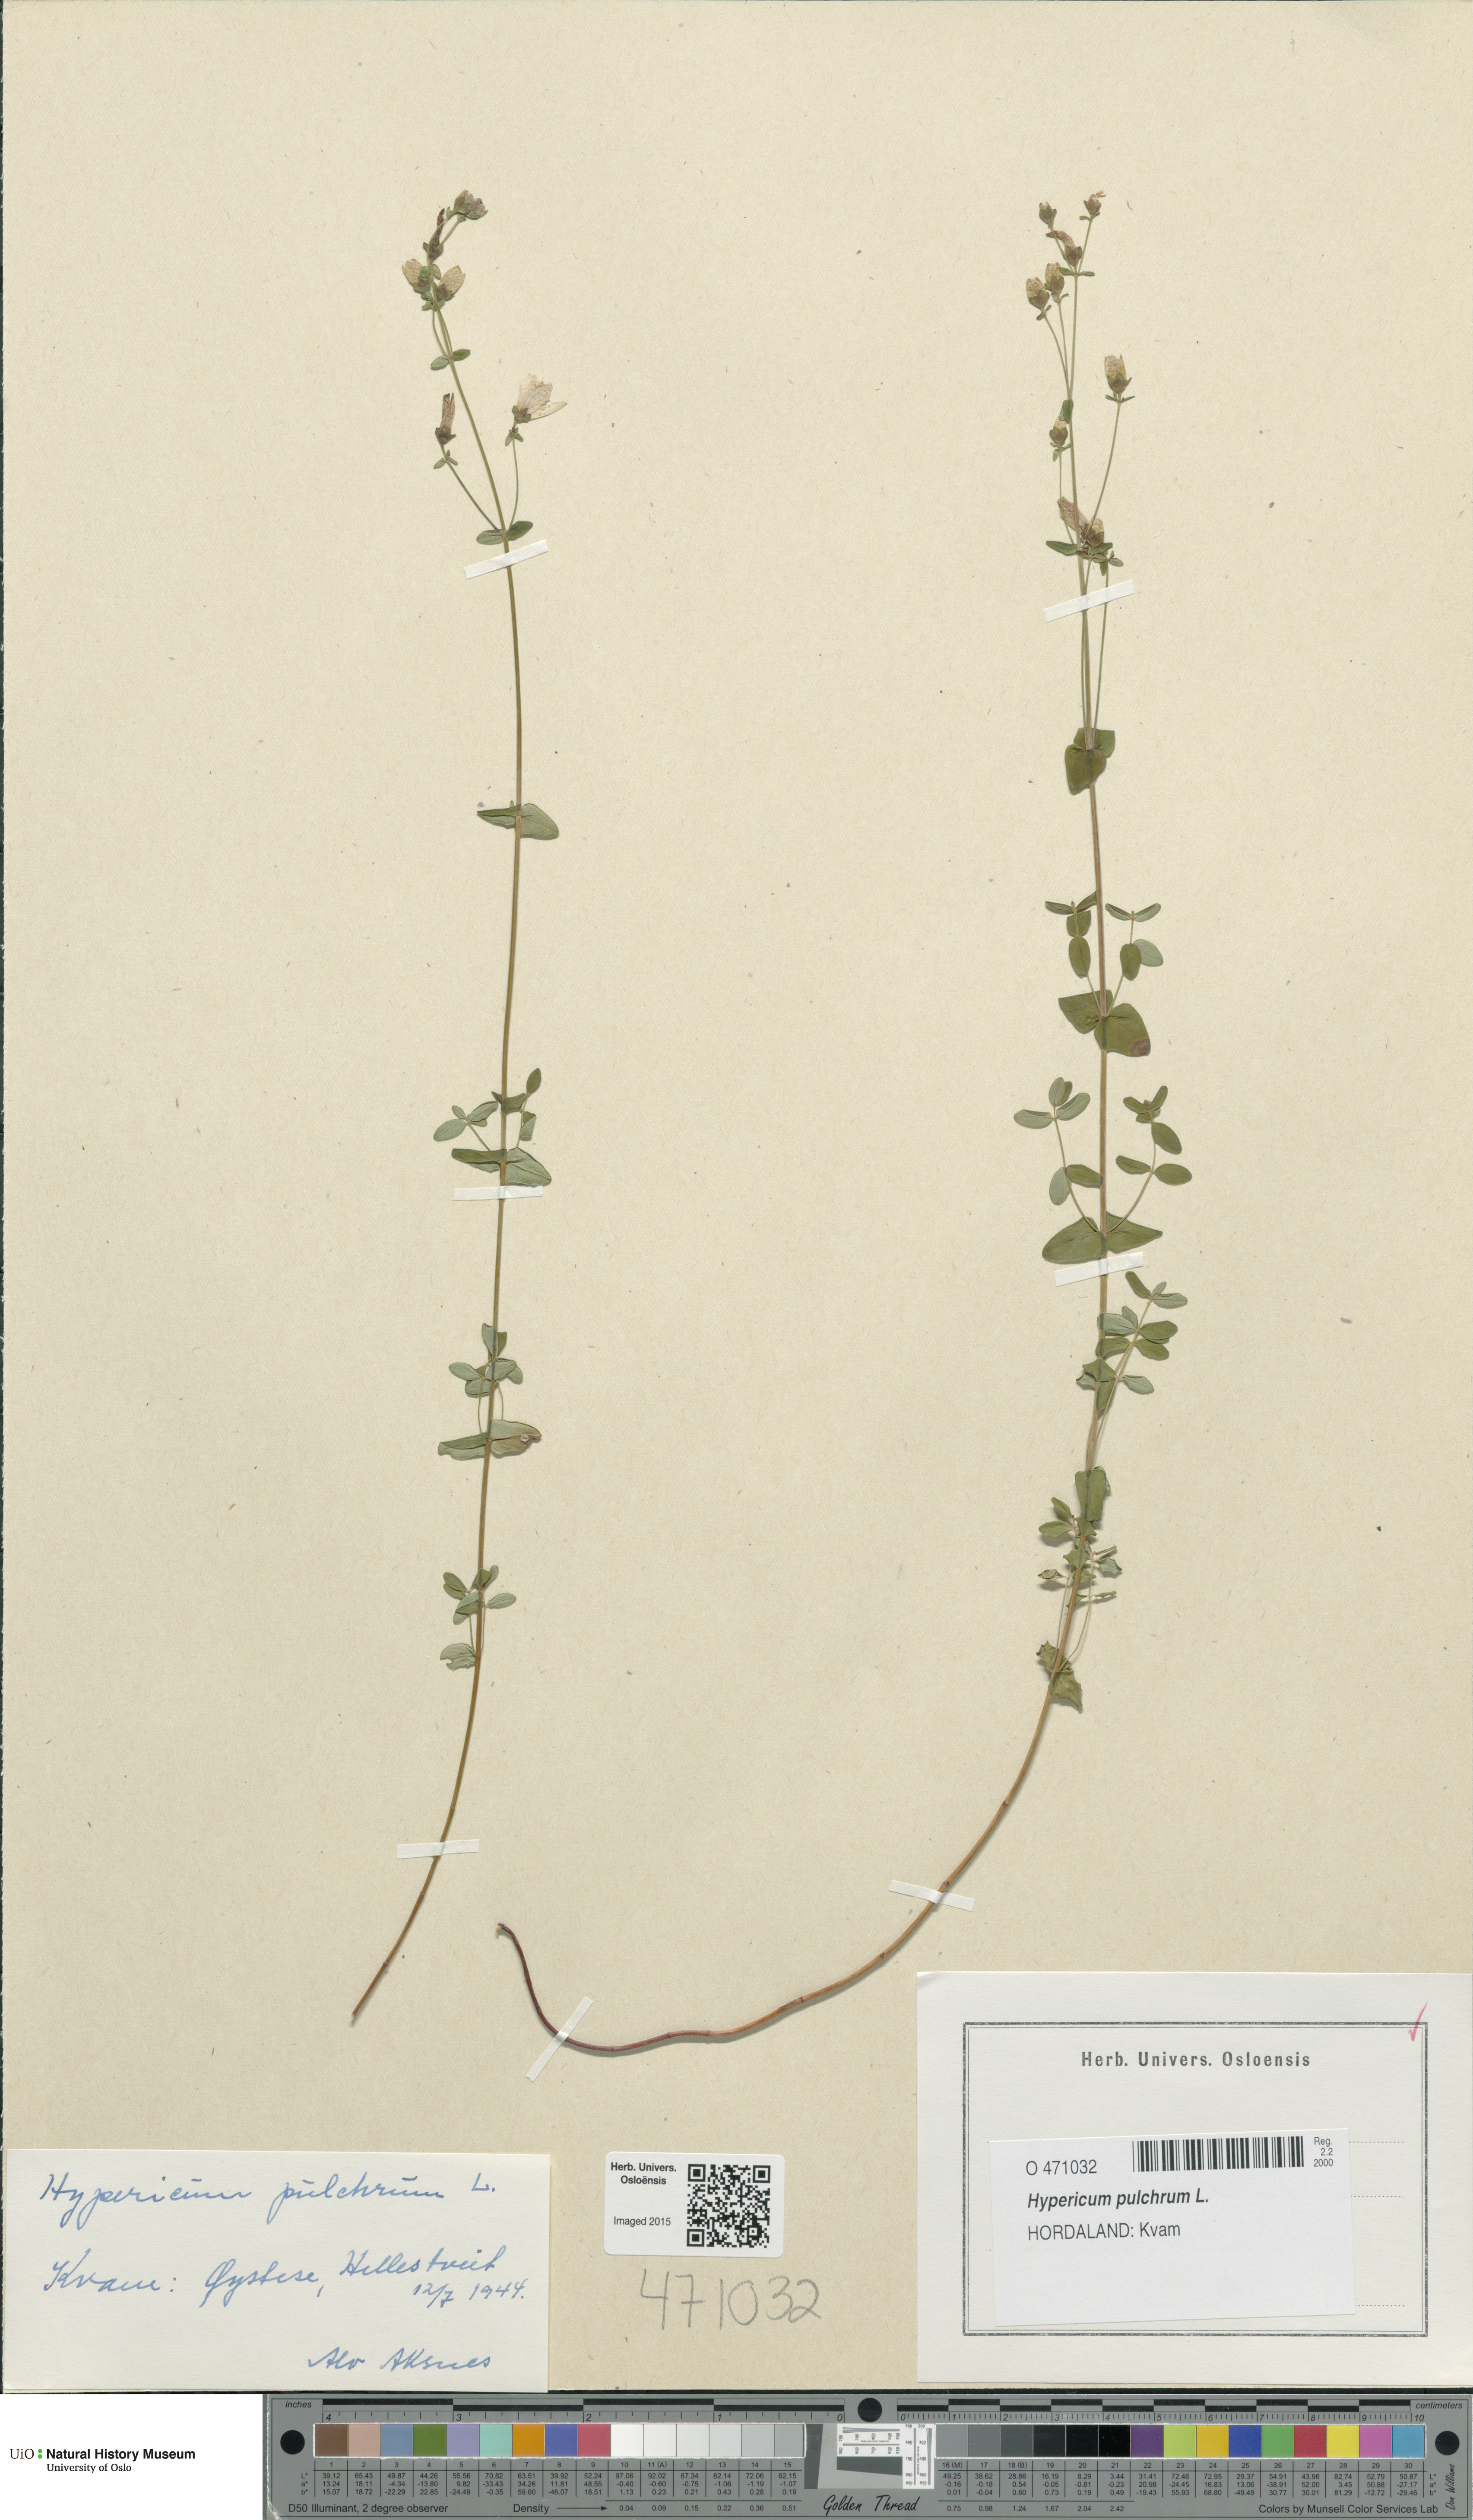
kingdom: Plantae
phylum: Tracheophyta
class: Magnoliopsida
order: Malpighiales
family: Hypericaceae
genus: Hypericum
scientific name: Hypericum pulchrum
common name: Slender st. john's-wort
